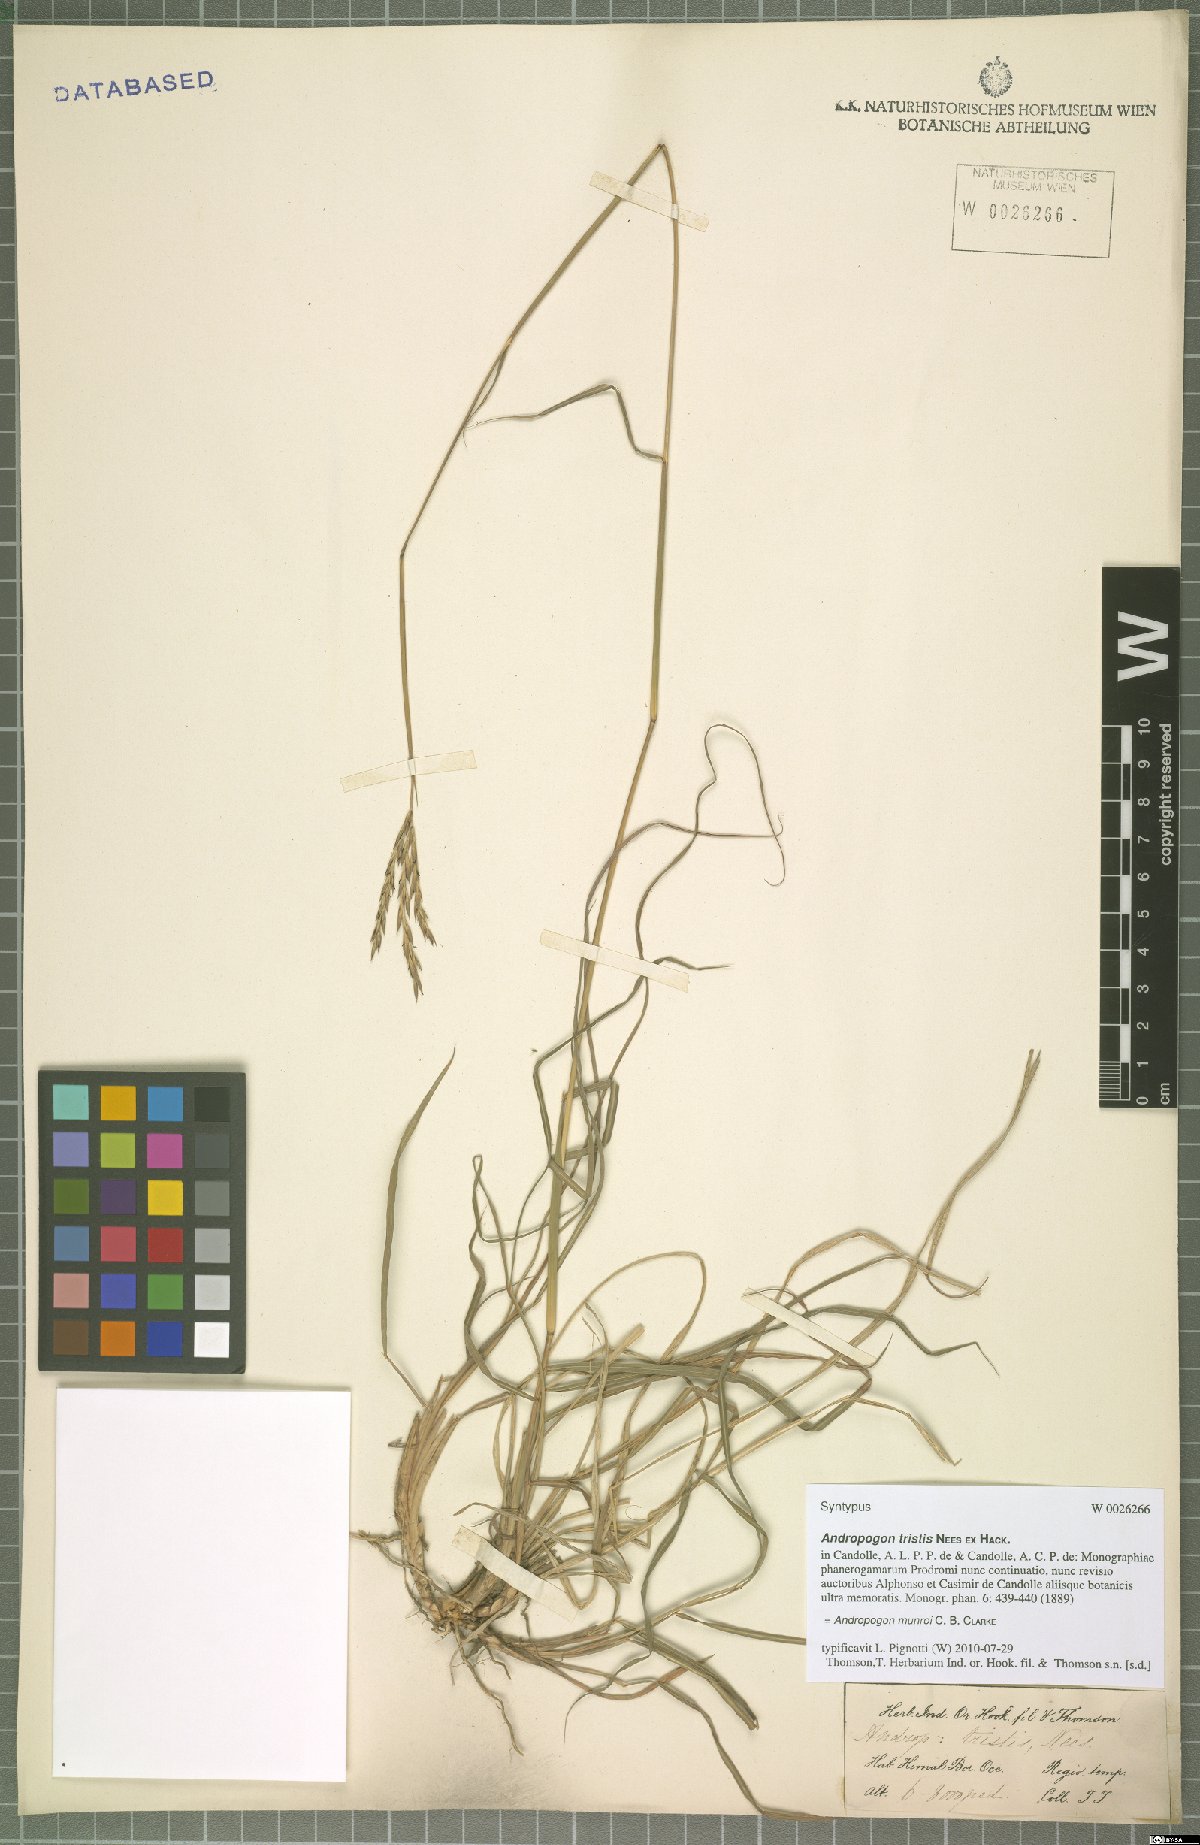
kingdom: Plantae
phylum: Tracheophyta
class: Liliopsida
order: Poales
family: Poaceae
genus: Andropogon
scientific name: Andropogon munroi
